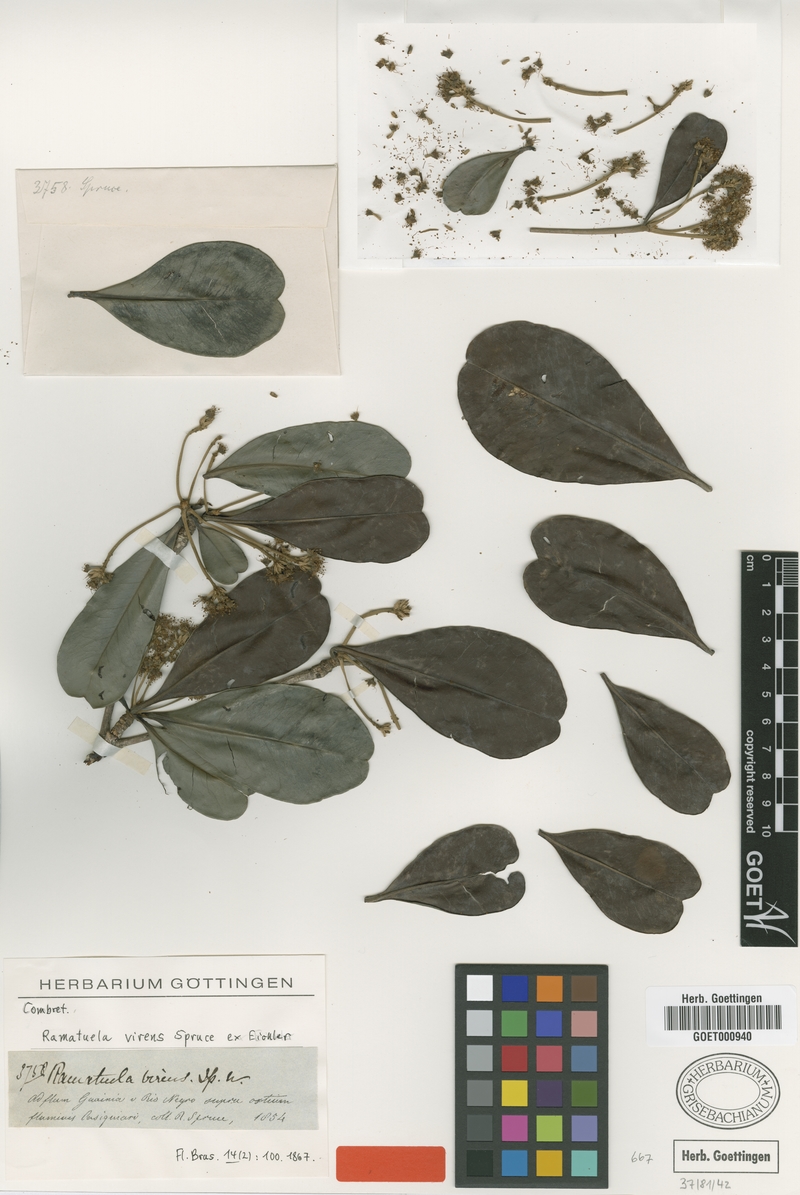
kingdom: Plantae
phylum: Tracheophyta
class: Magnoliopsida
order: Myrtales
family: Combretaceae
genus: Terminalia
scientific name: Terminalia virens
